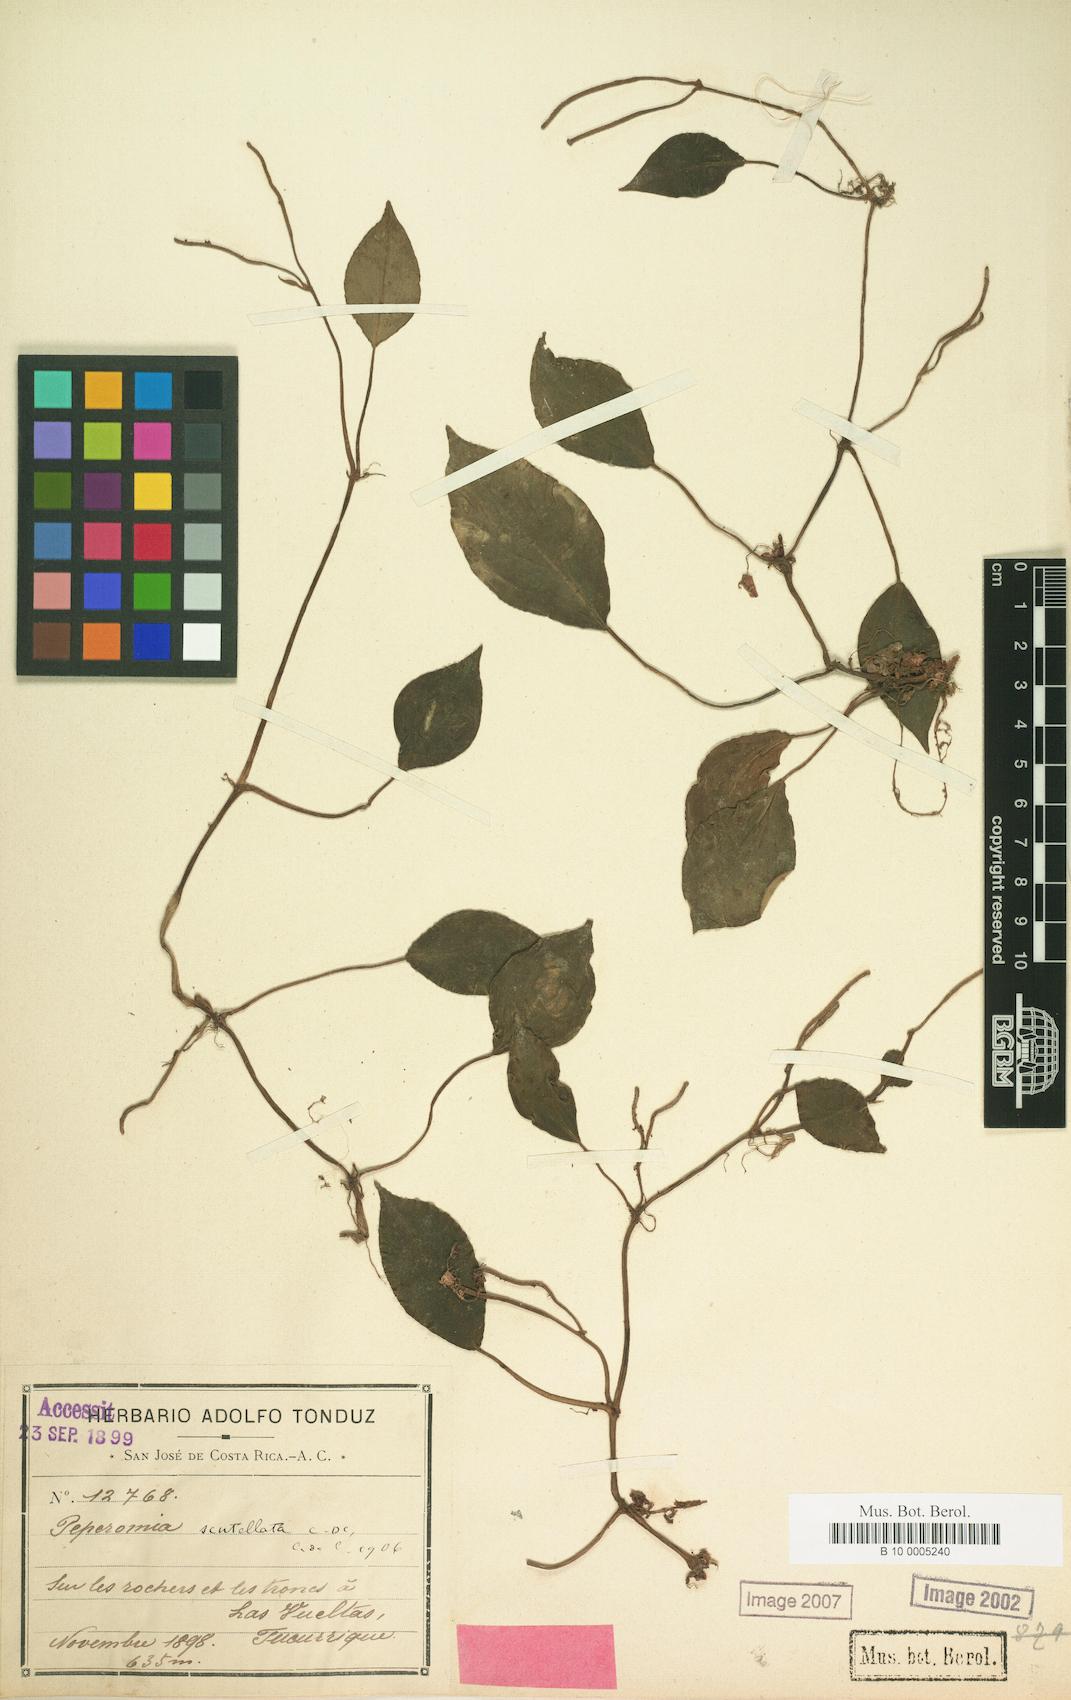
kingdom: Plantae
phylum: Tracheophyta
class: Magnoliopsida
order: Piperales
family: Piperaceae
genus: Peperomia
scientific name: Peperomia distachyos
